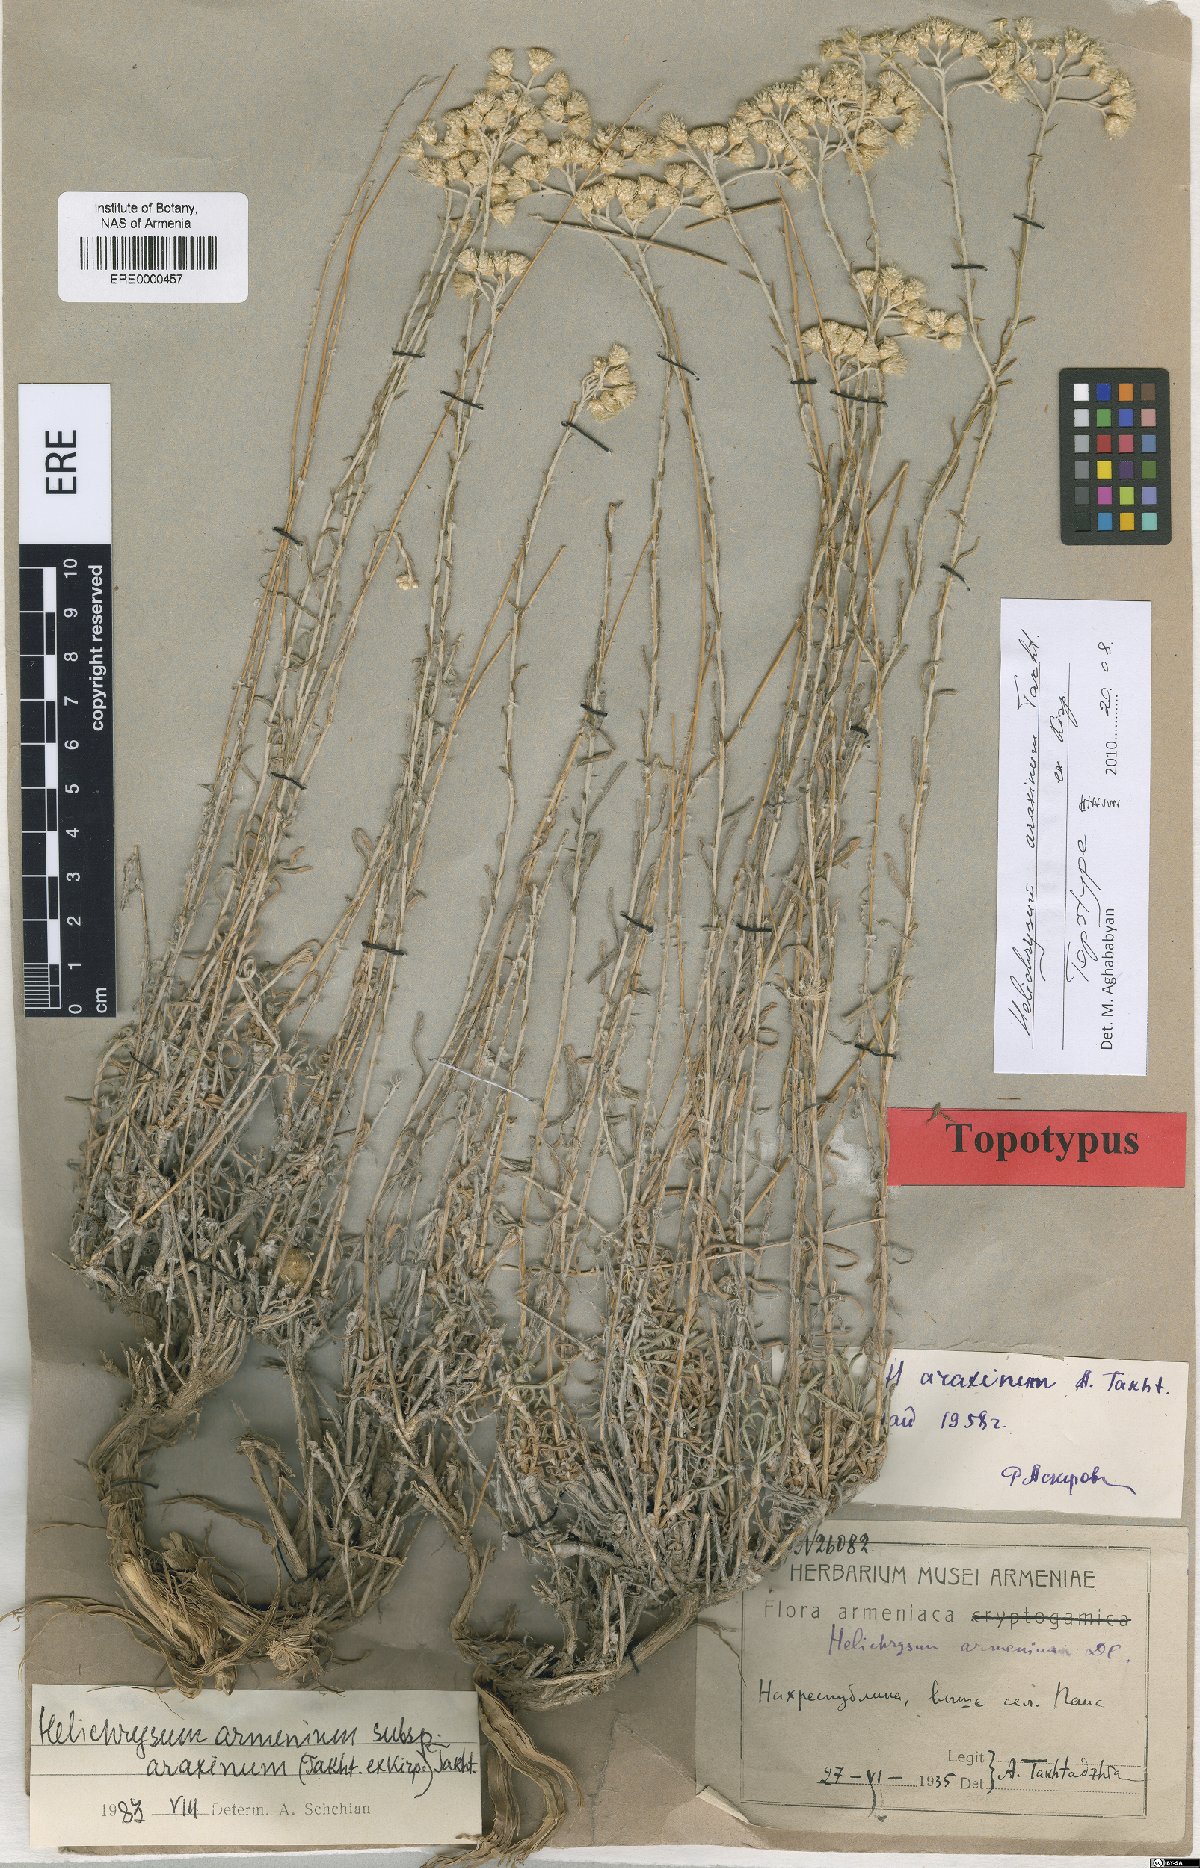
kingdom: Plantae
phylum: Tracheophyta
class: Magnoliopsida
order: Asterales
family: Asteraceae
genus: Helichrysum
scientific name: Helichrysum araxinum
